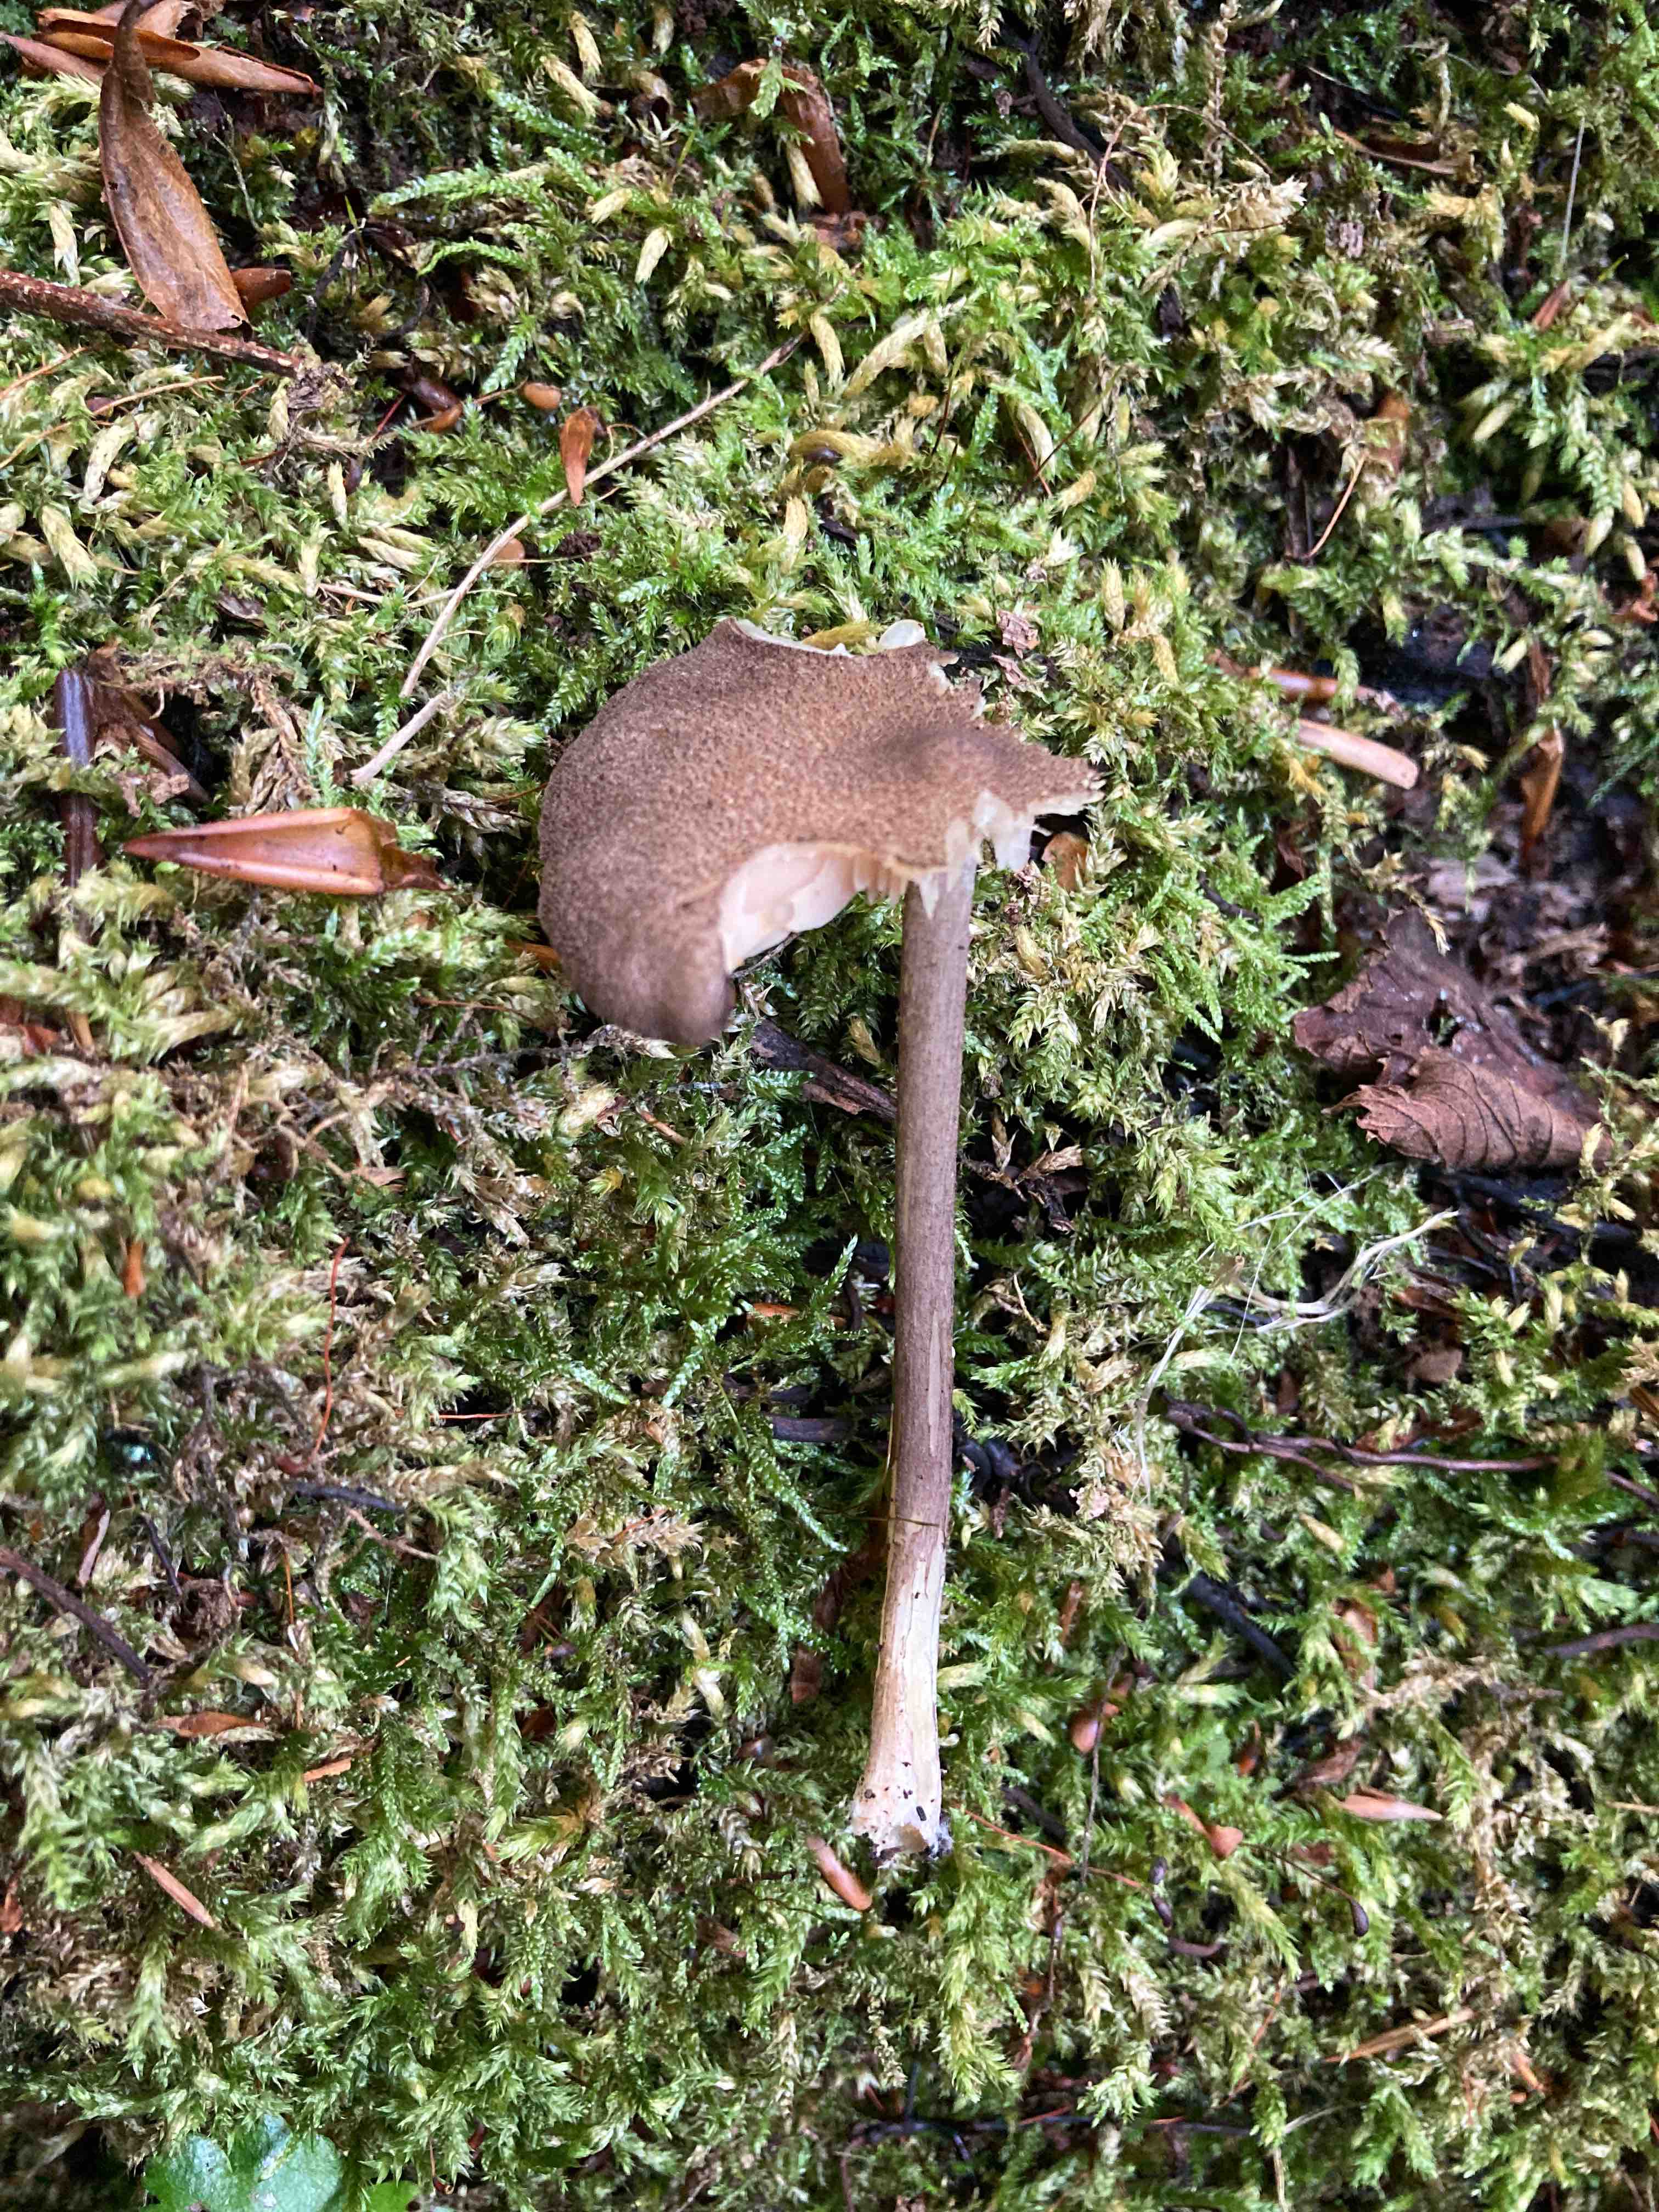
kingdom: Fungi
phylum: Basidiomycota
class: Agaricomycetes
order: Agaricales
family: Entolomataceae
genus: Entoloma
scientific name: Entoloma allochroum
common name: Rødviolet rødblad
